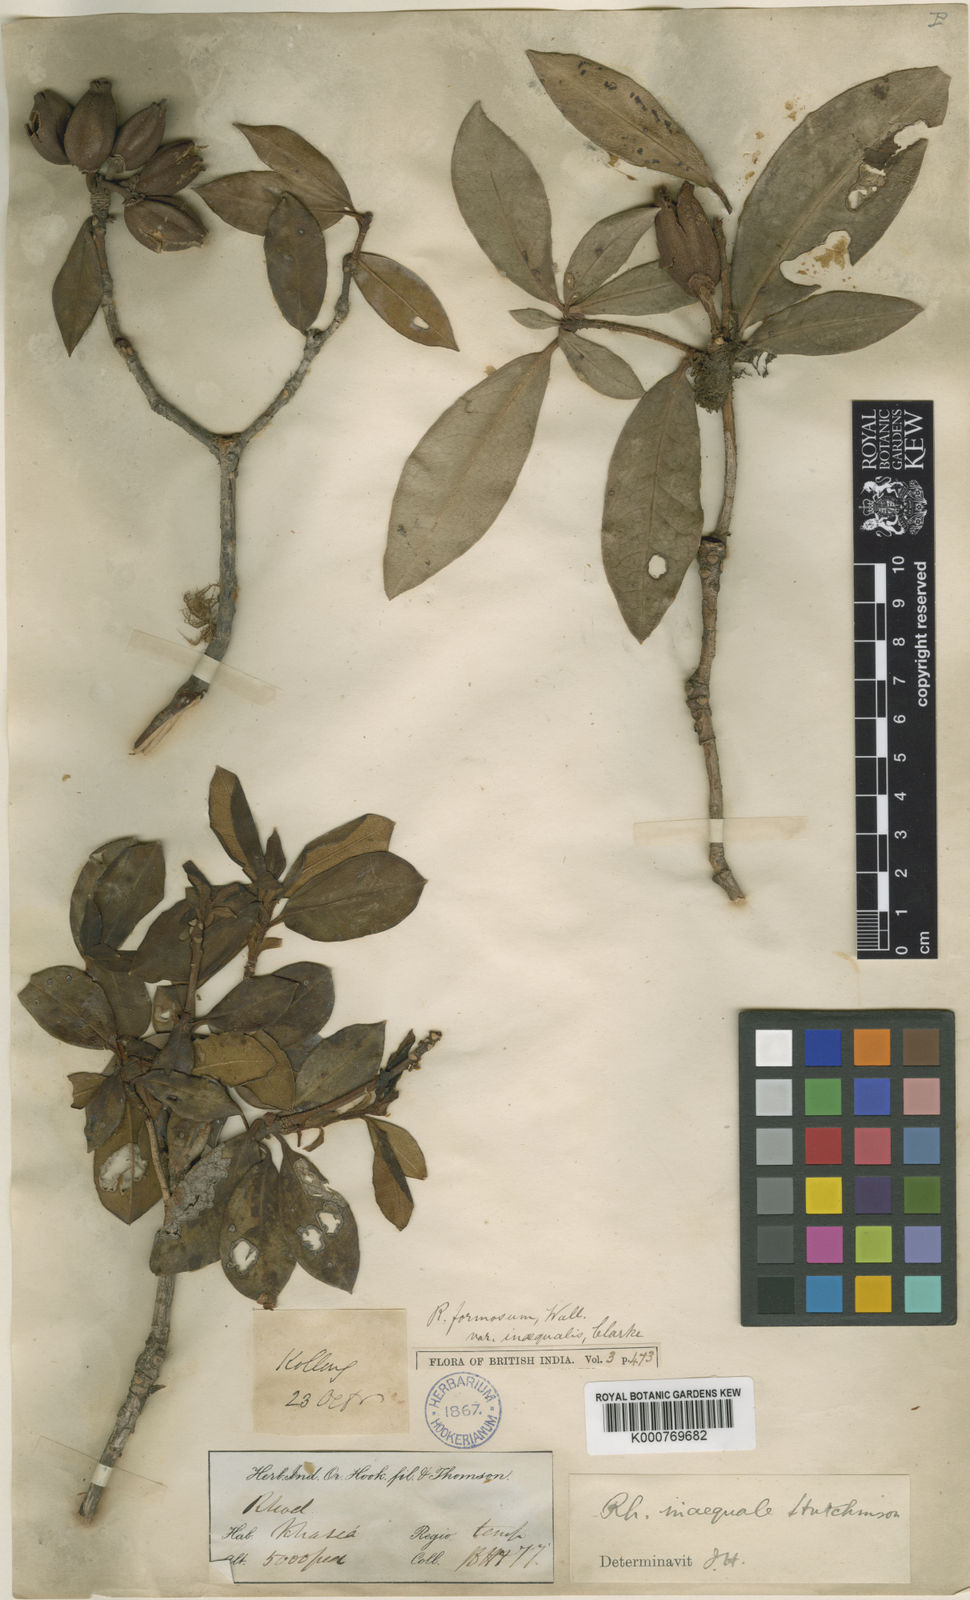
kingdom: Plantae
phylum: Tracheophyta
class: Magnoliopsida
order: Ericales
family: Ericaceae
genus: Rhododendron
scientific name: Rhododendron formosum
